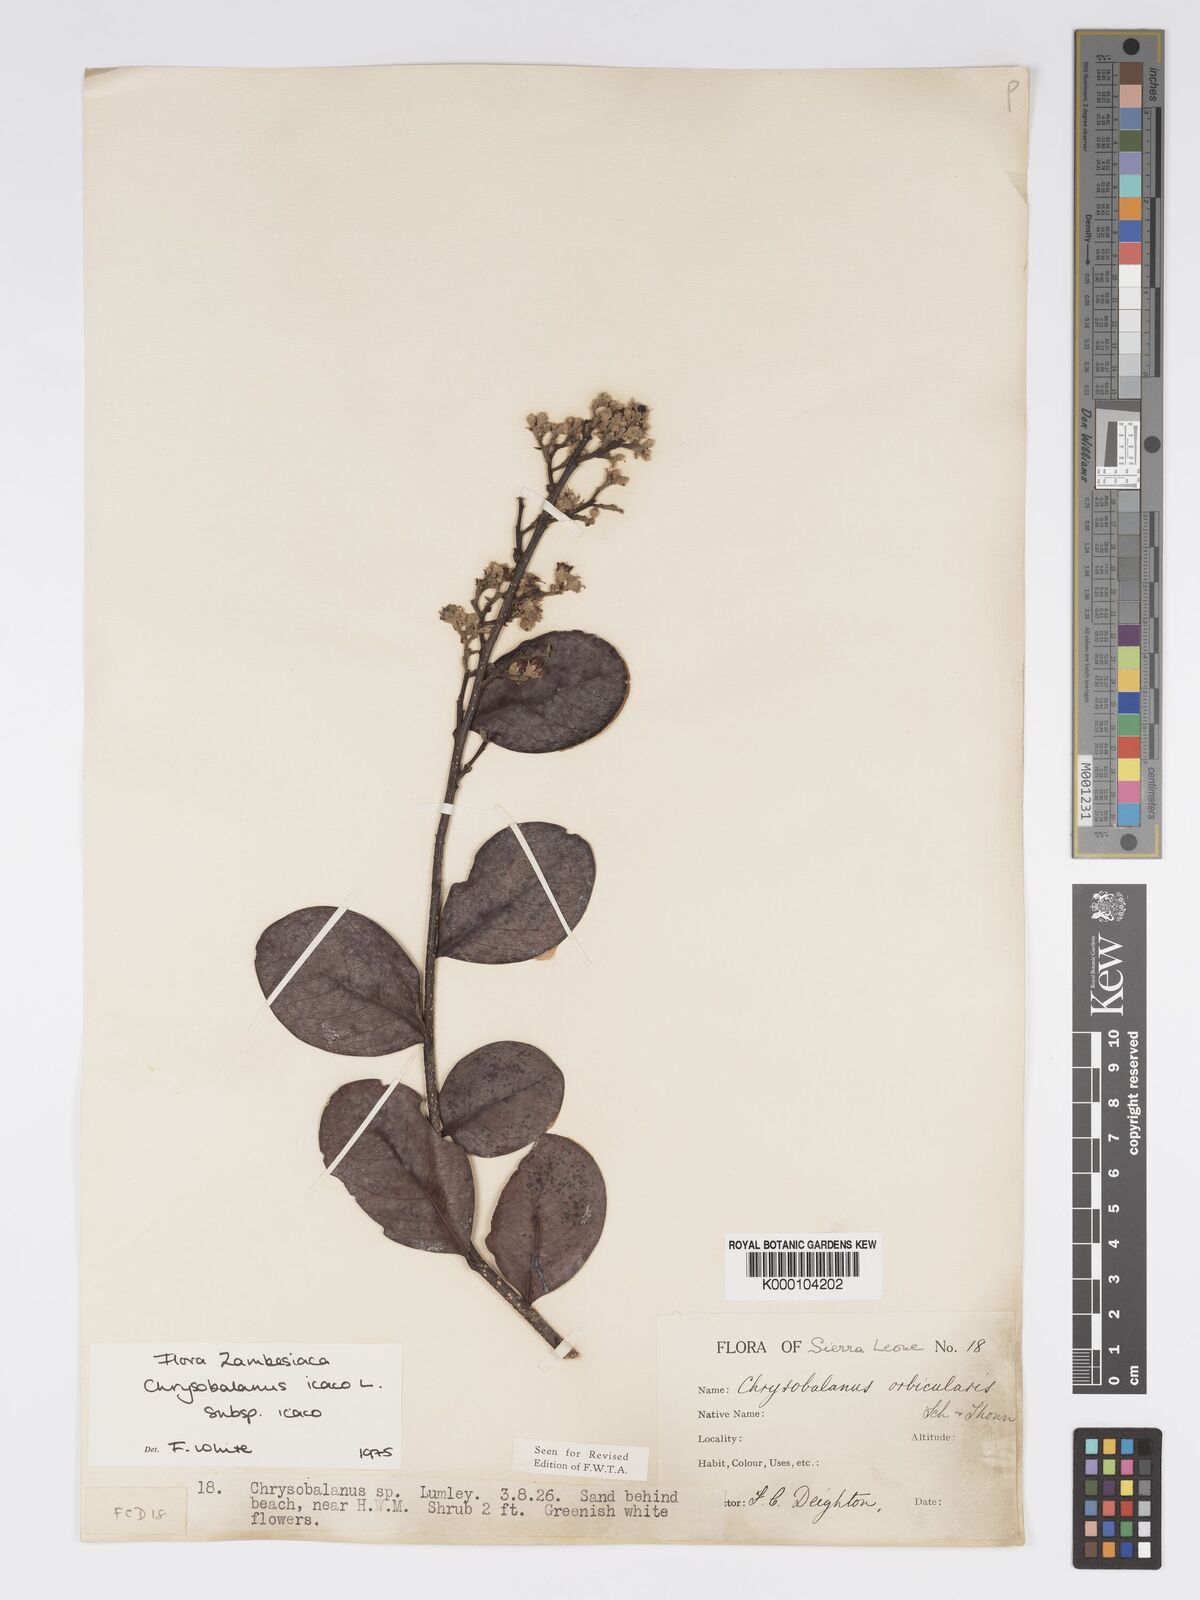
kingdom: Plantae
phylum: Tracheophyta
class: Magnoliopsida
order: Malpighiales
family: Chrysobalanaceae
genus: Chrysobalanus
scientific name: Chrysobalanus icaco
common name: Coco plum
